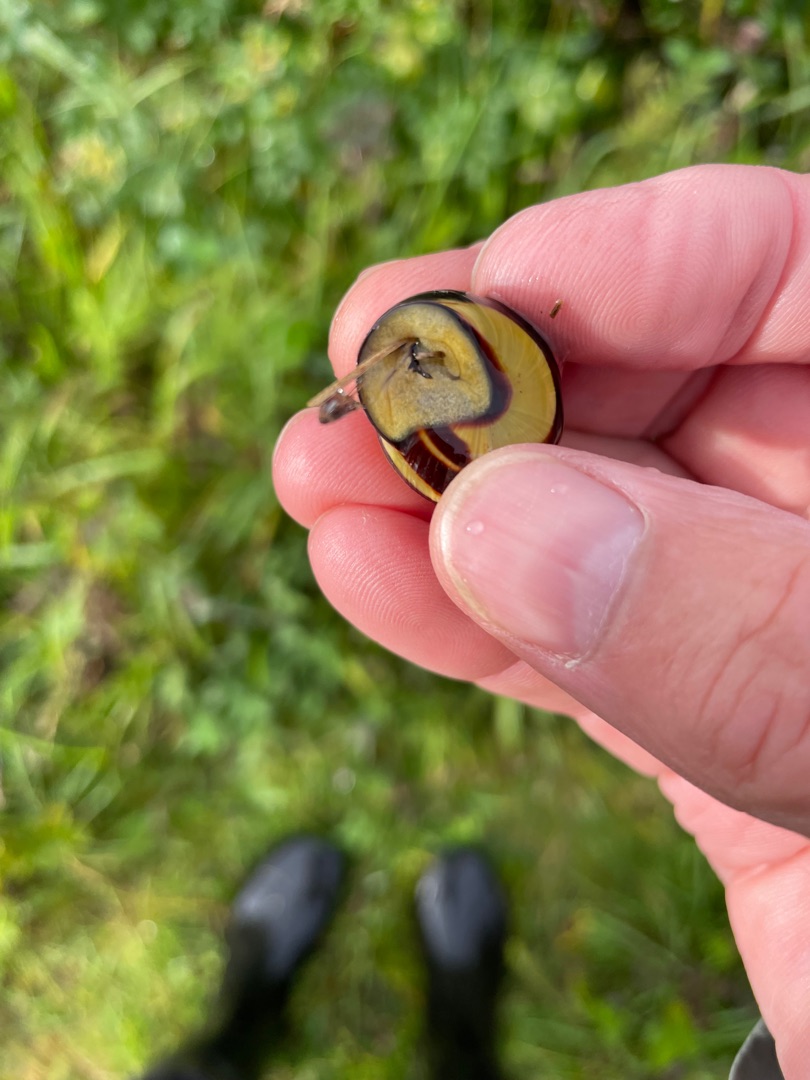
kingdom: Animalia
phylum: Mollusca
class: Gastropoda
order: Stylommatophora
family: Helicidae
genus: Cepaea
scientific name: Cepaea nemoralis
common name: Lundsnegl
